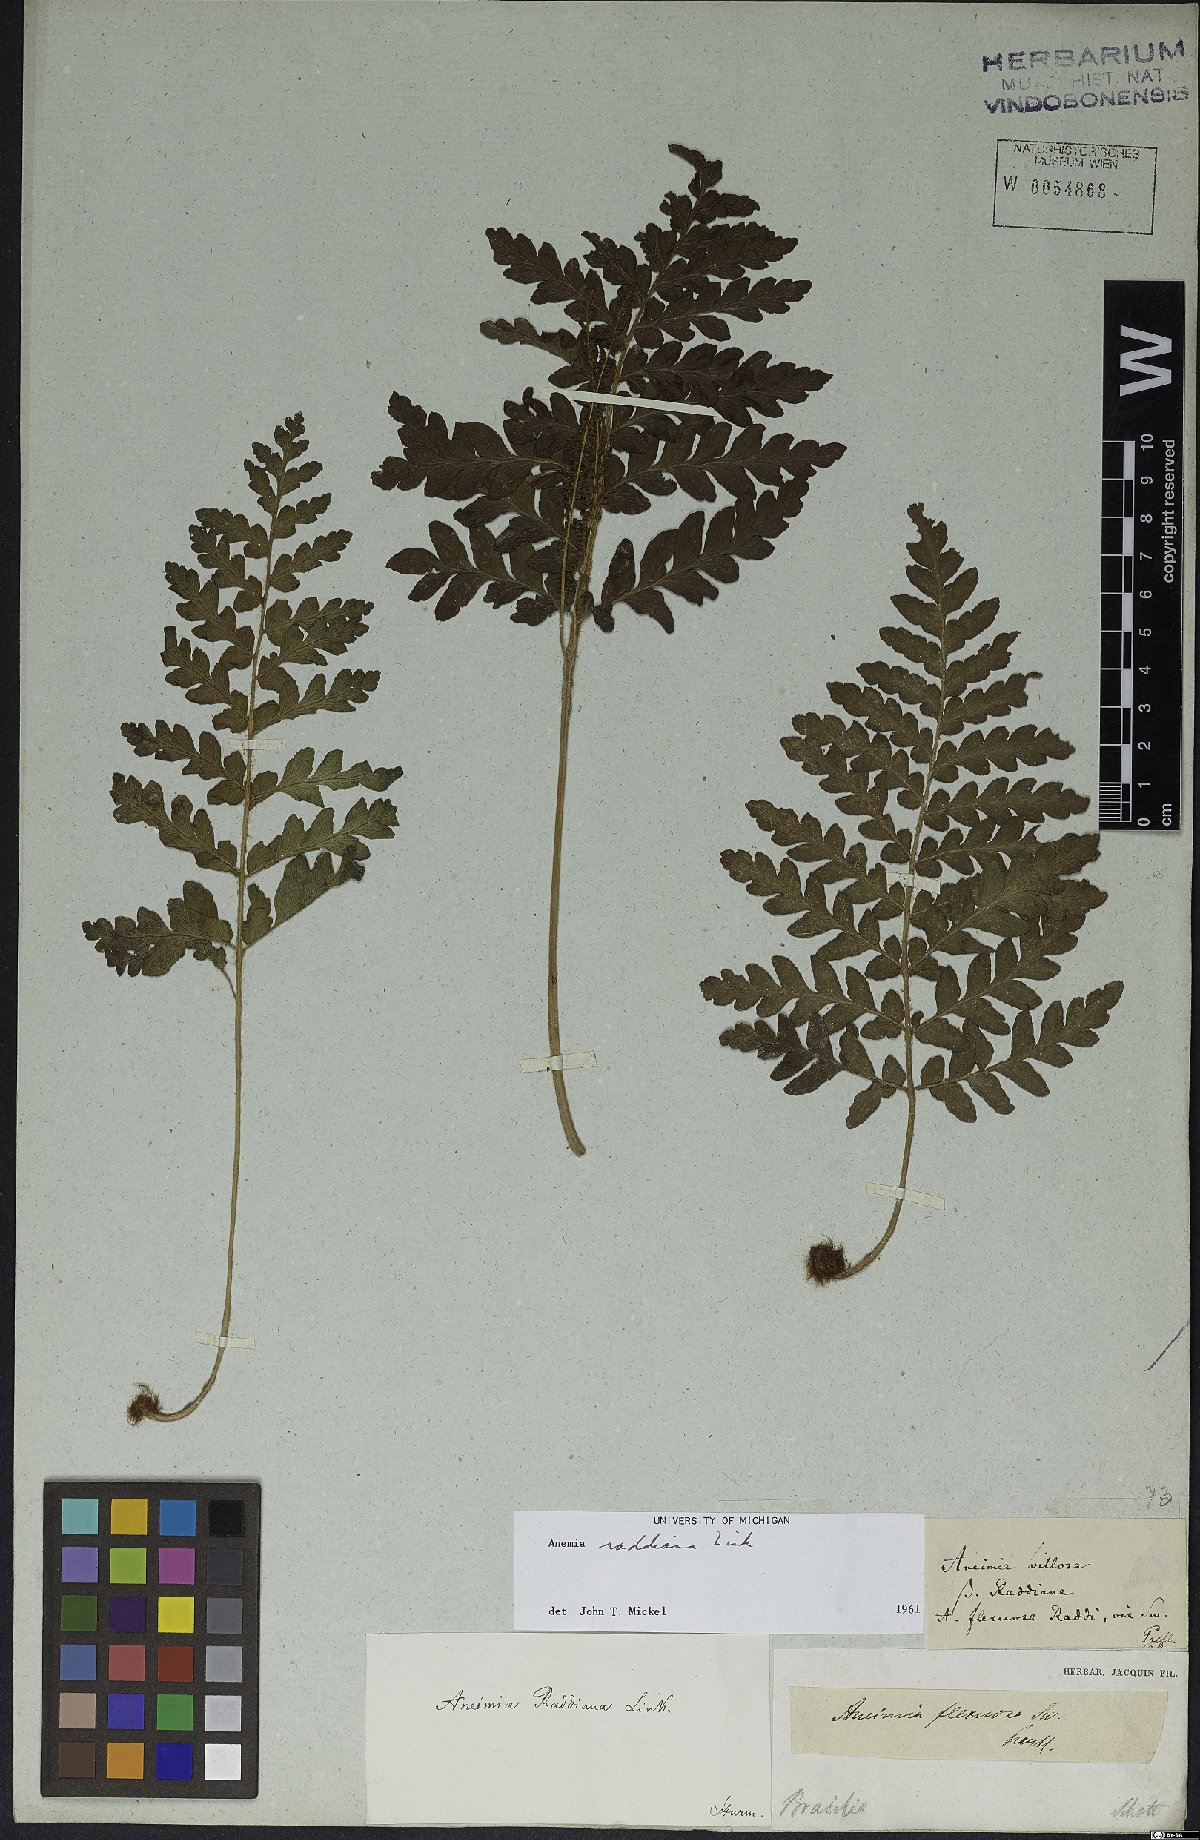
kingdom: Plantae
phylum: Tracheophyta
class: Polypodiopsida
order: Schizaeales
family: Anemiaceae
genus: Anemia
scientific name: Anemia raddiana
